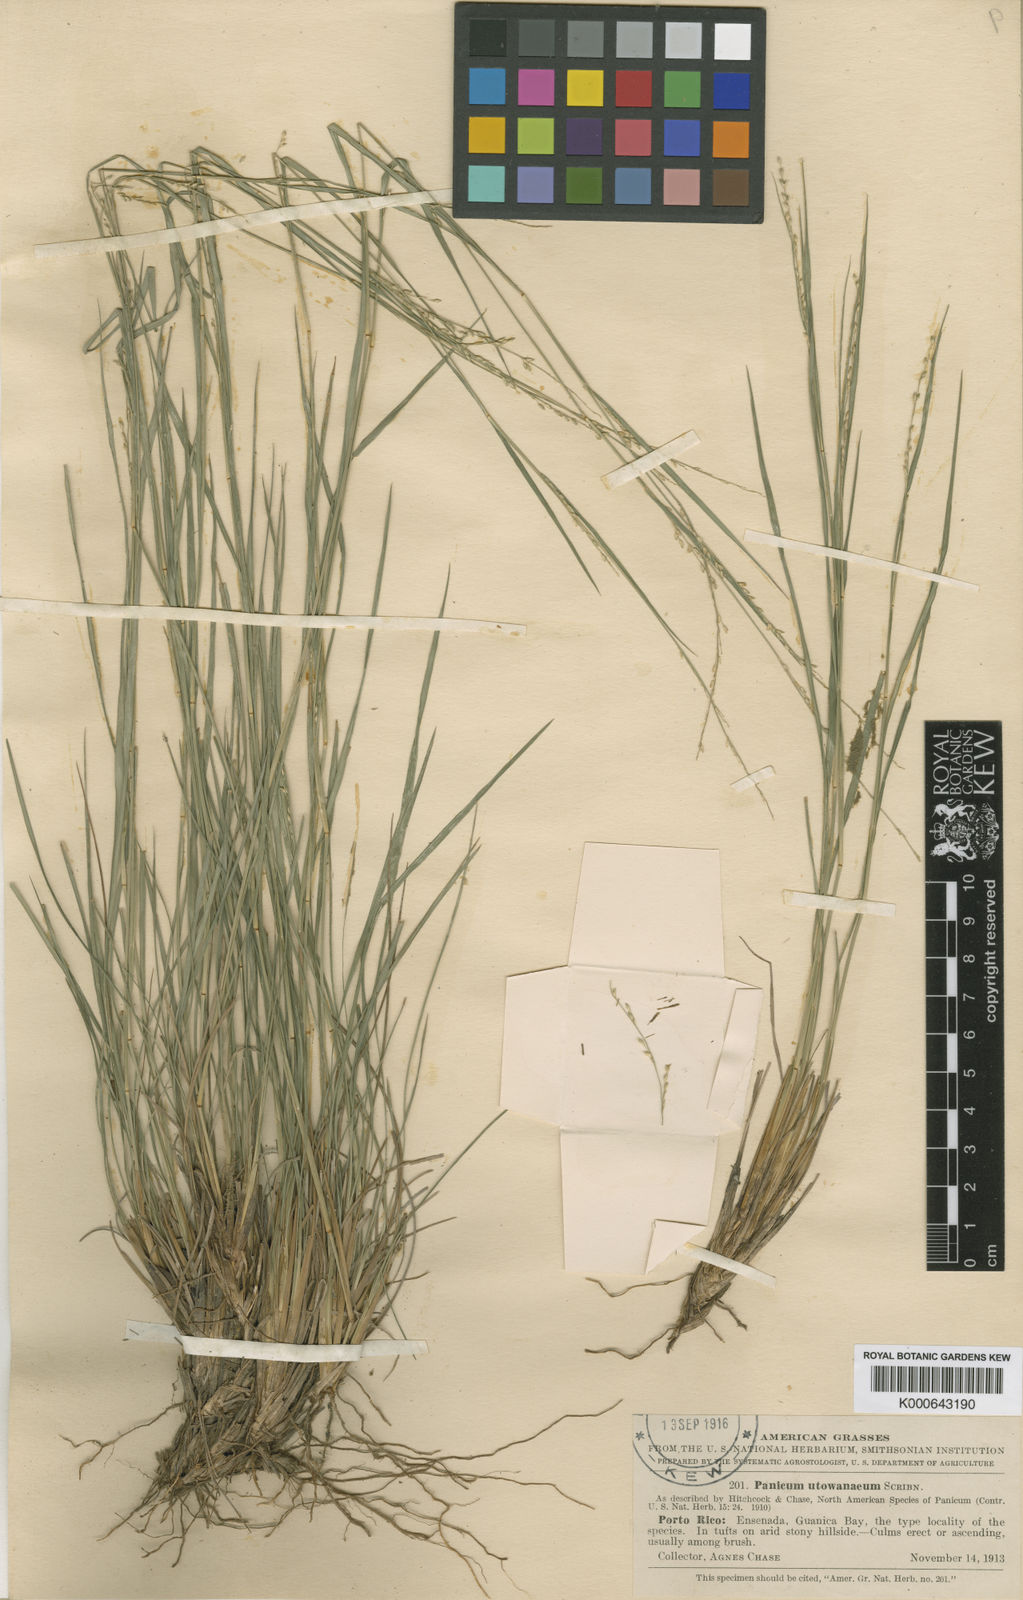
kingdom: Plantae
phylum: Tracheophyta
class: Liliopsida
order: Poales
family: Poaceae
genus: Setaria
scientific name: Setaria utowanaea
